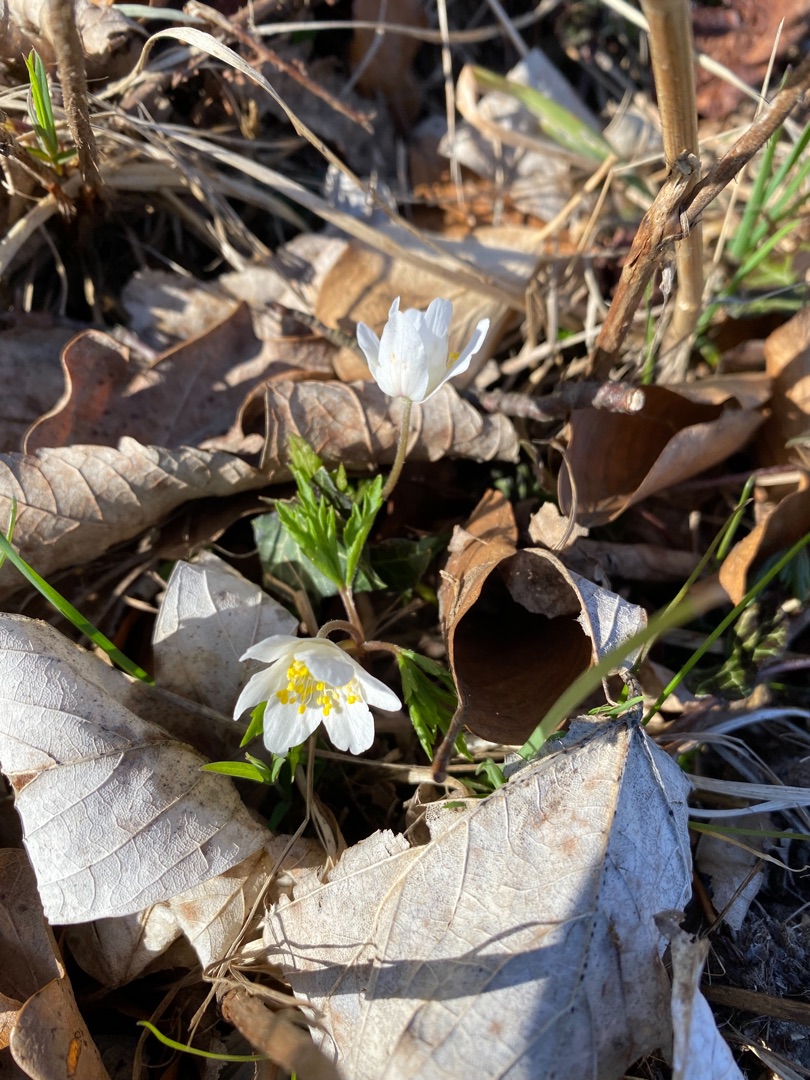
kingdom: Plantae
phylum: Tracheophyta
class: Magnoliopsida
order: Ranunculales
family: Ranunculaceae
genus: Anemone
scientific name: Anemone nemorosa
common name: Hvid anemone
